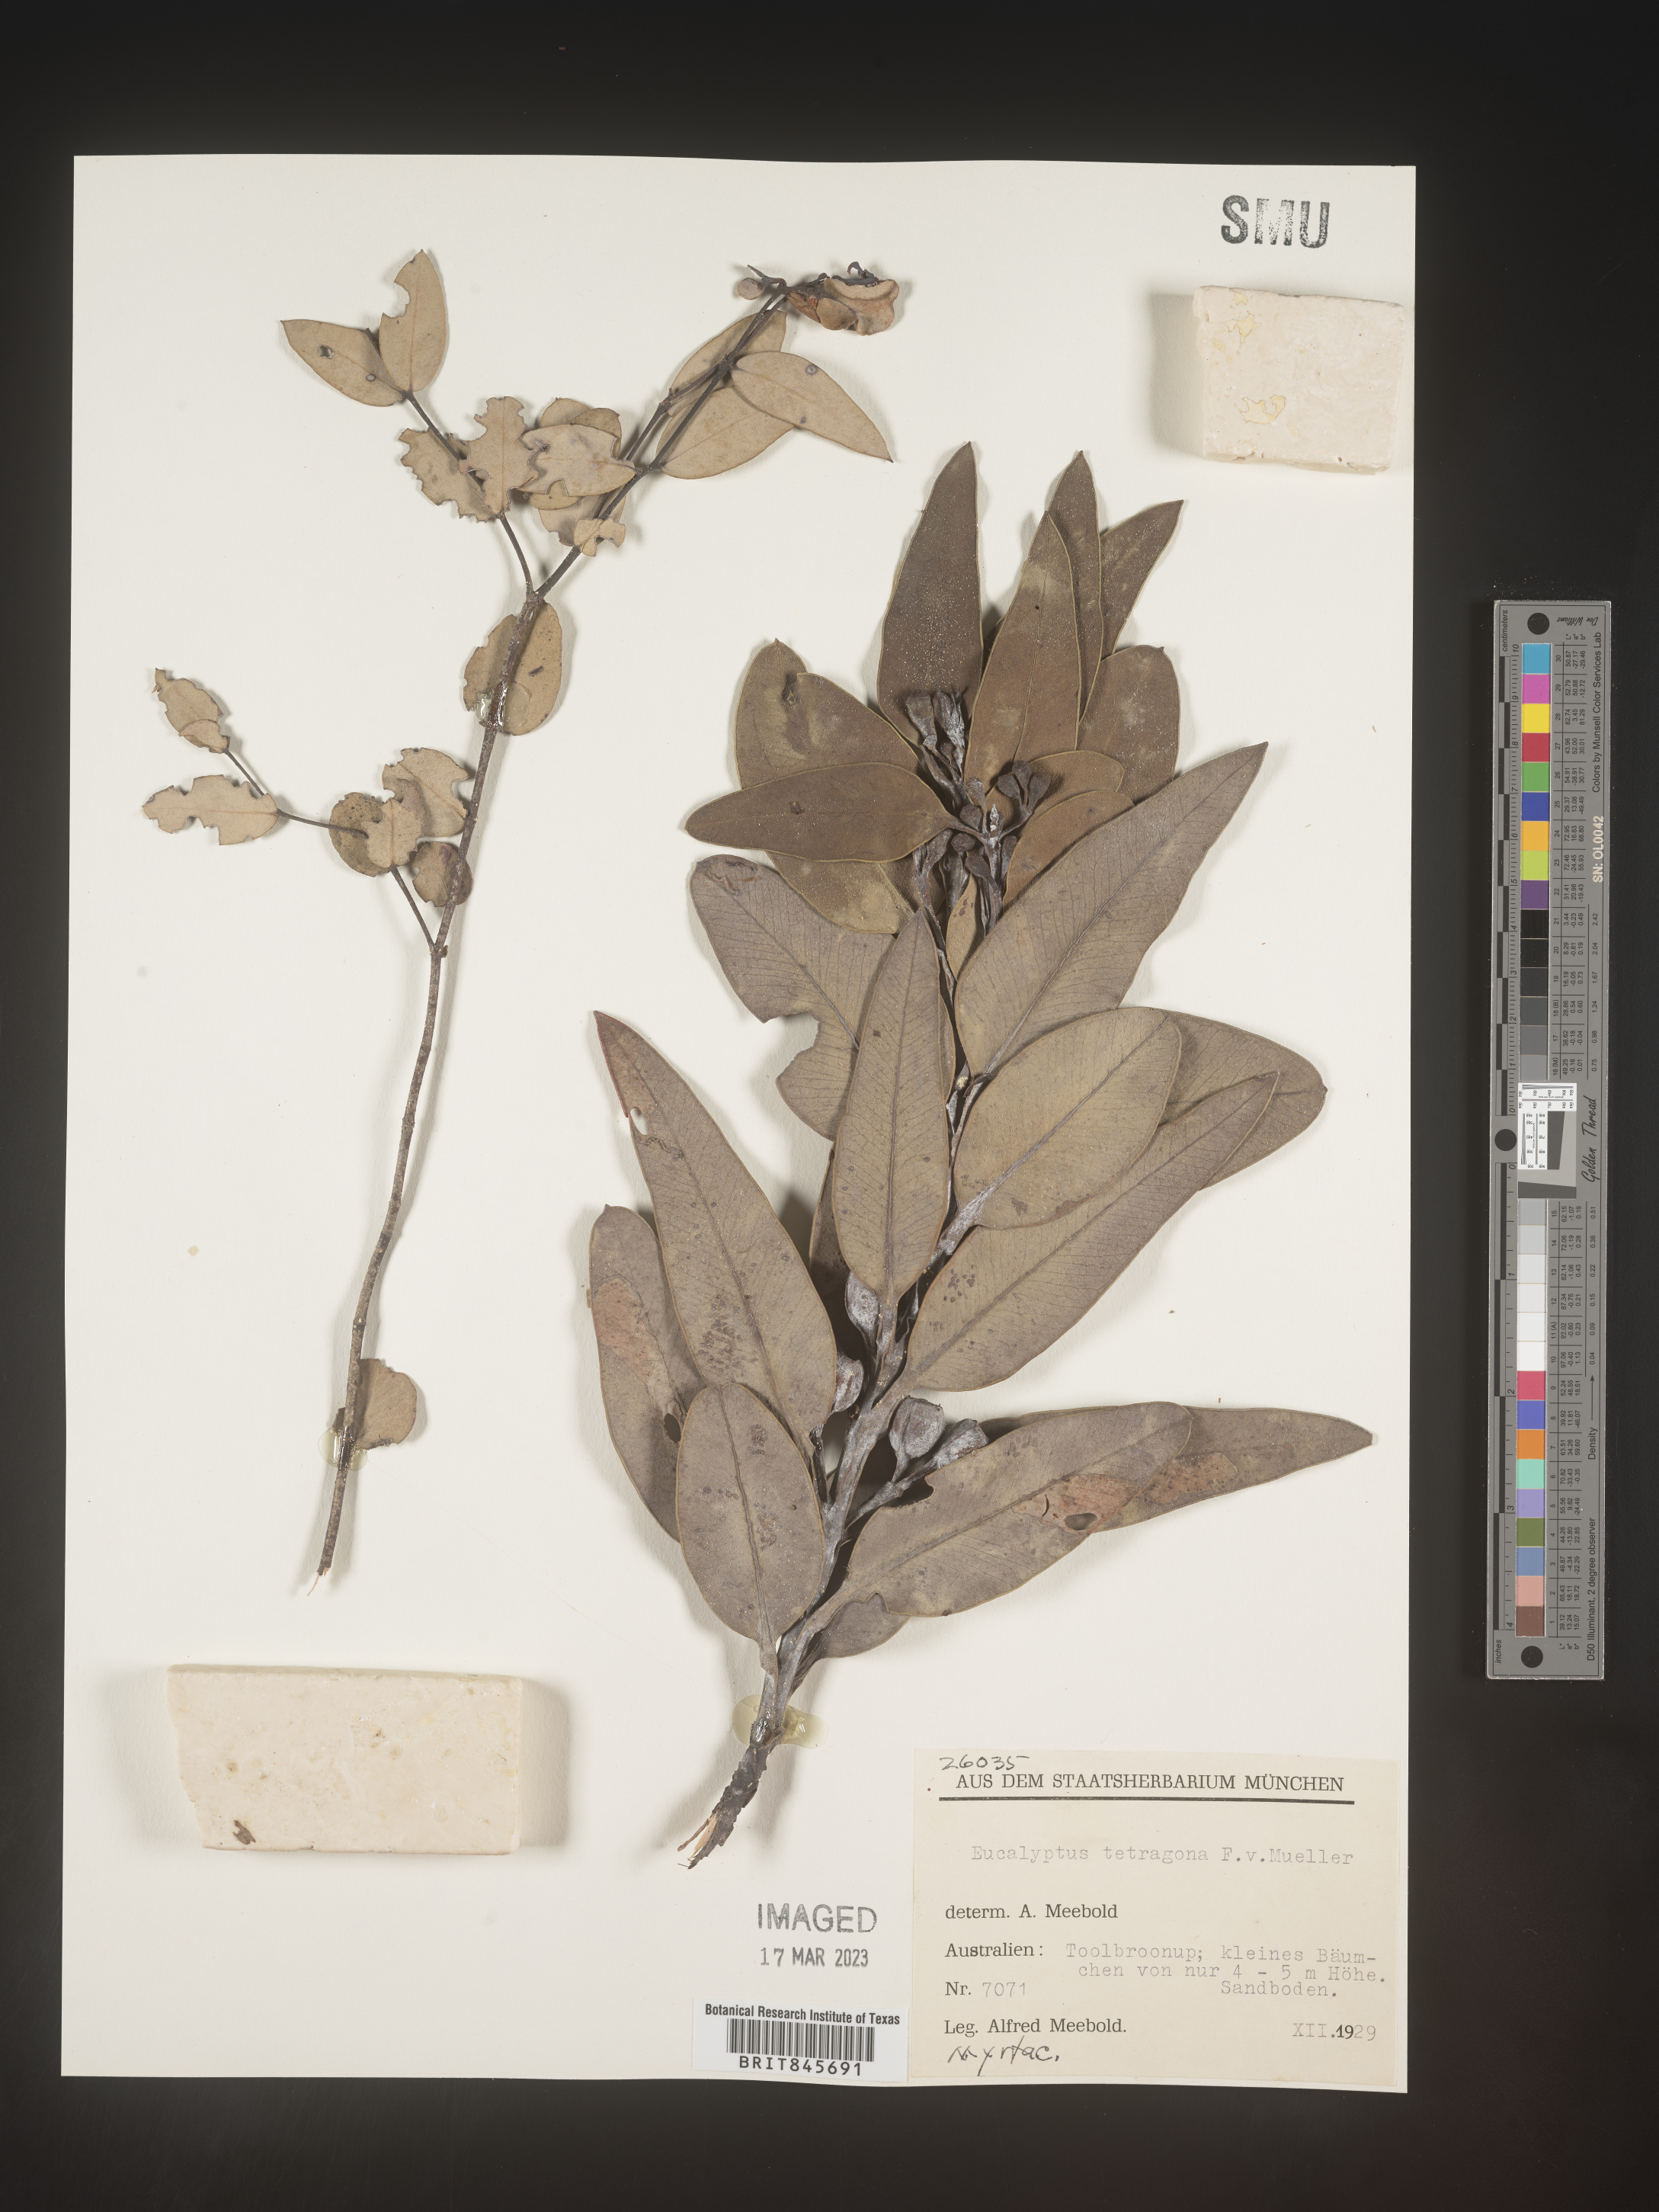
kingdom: Plantae
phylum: Tracheophyta
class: Magnoliopsida
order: Myrtales
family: Myrtaceae
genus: Eucalyptus
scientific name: Eucalyptus
